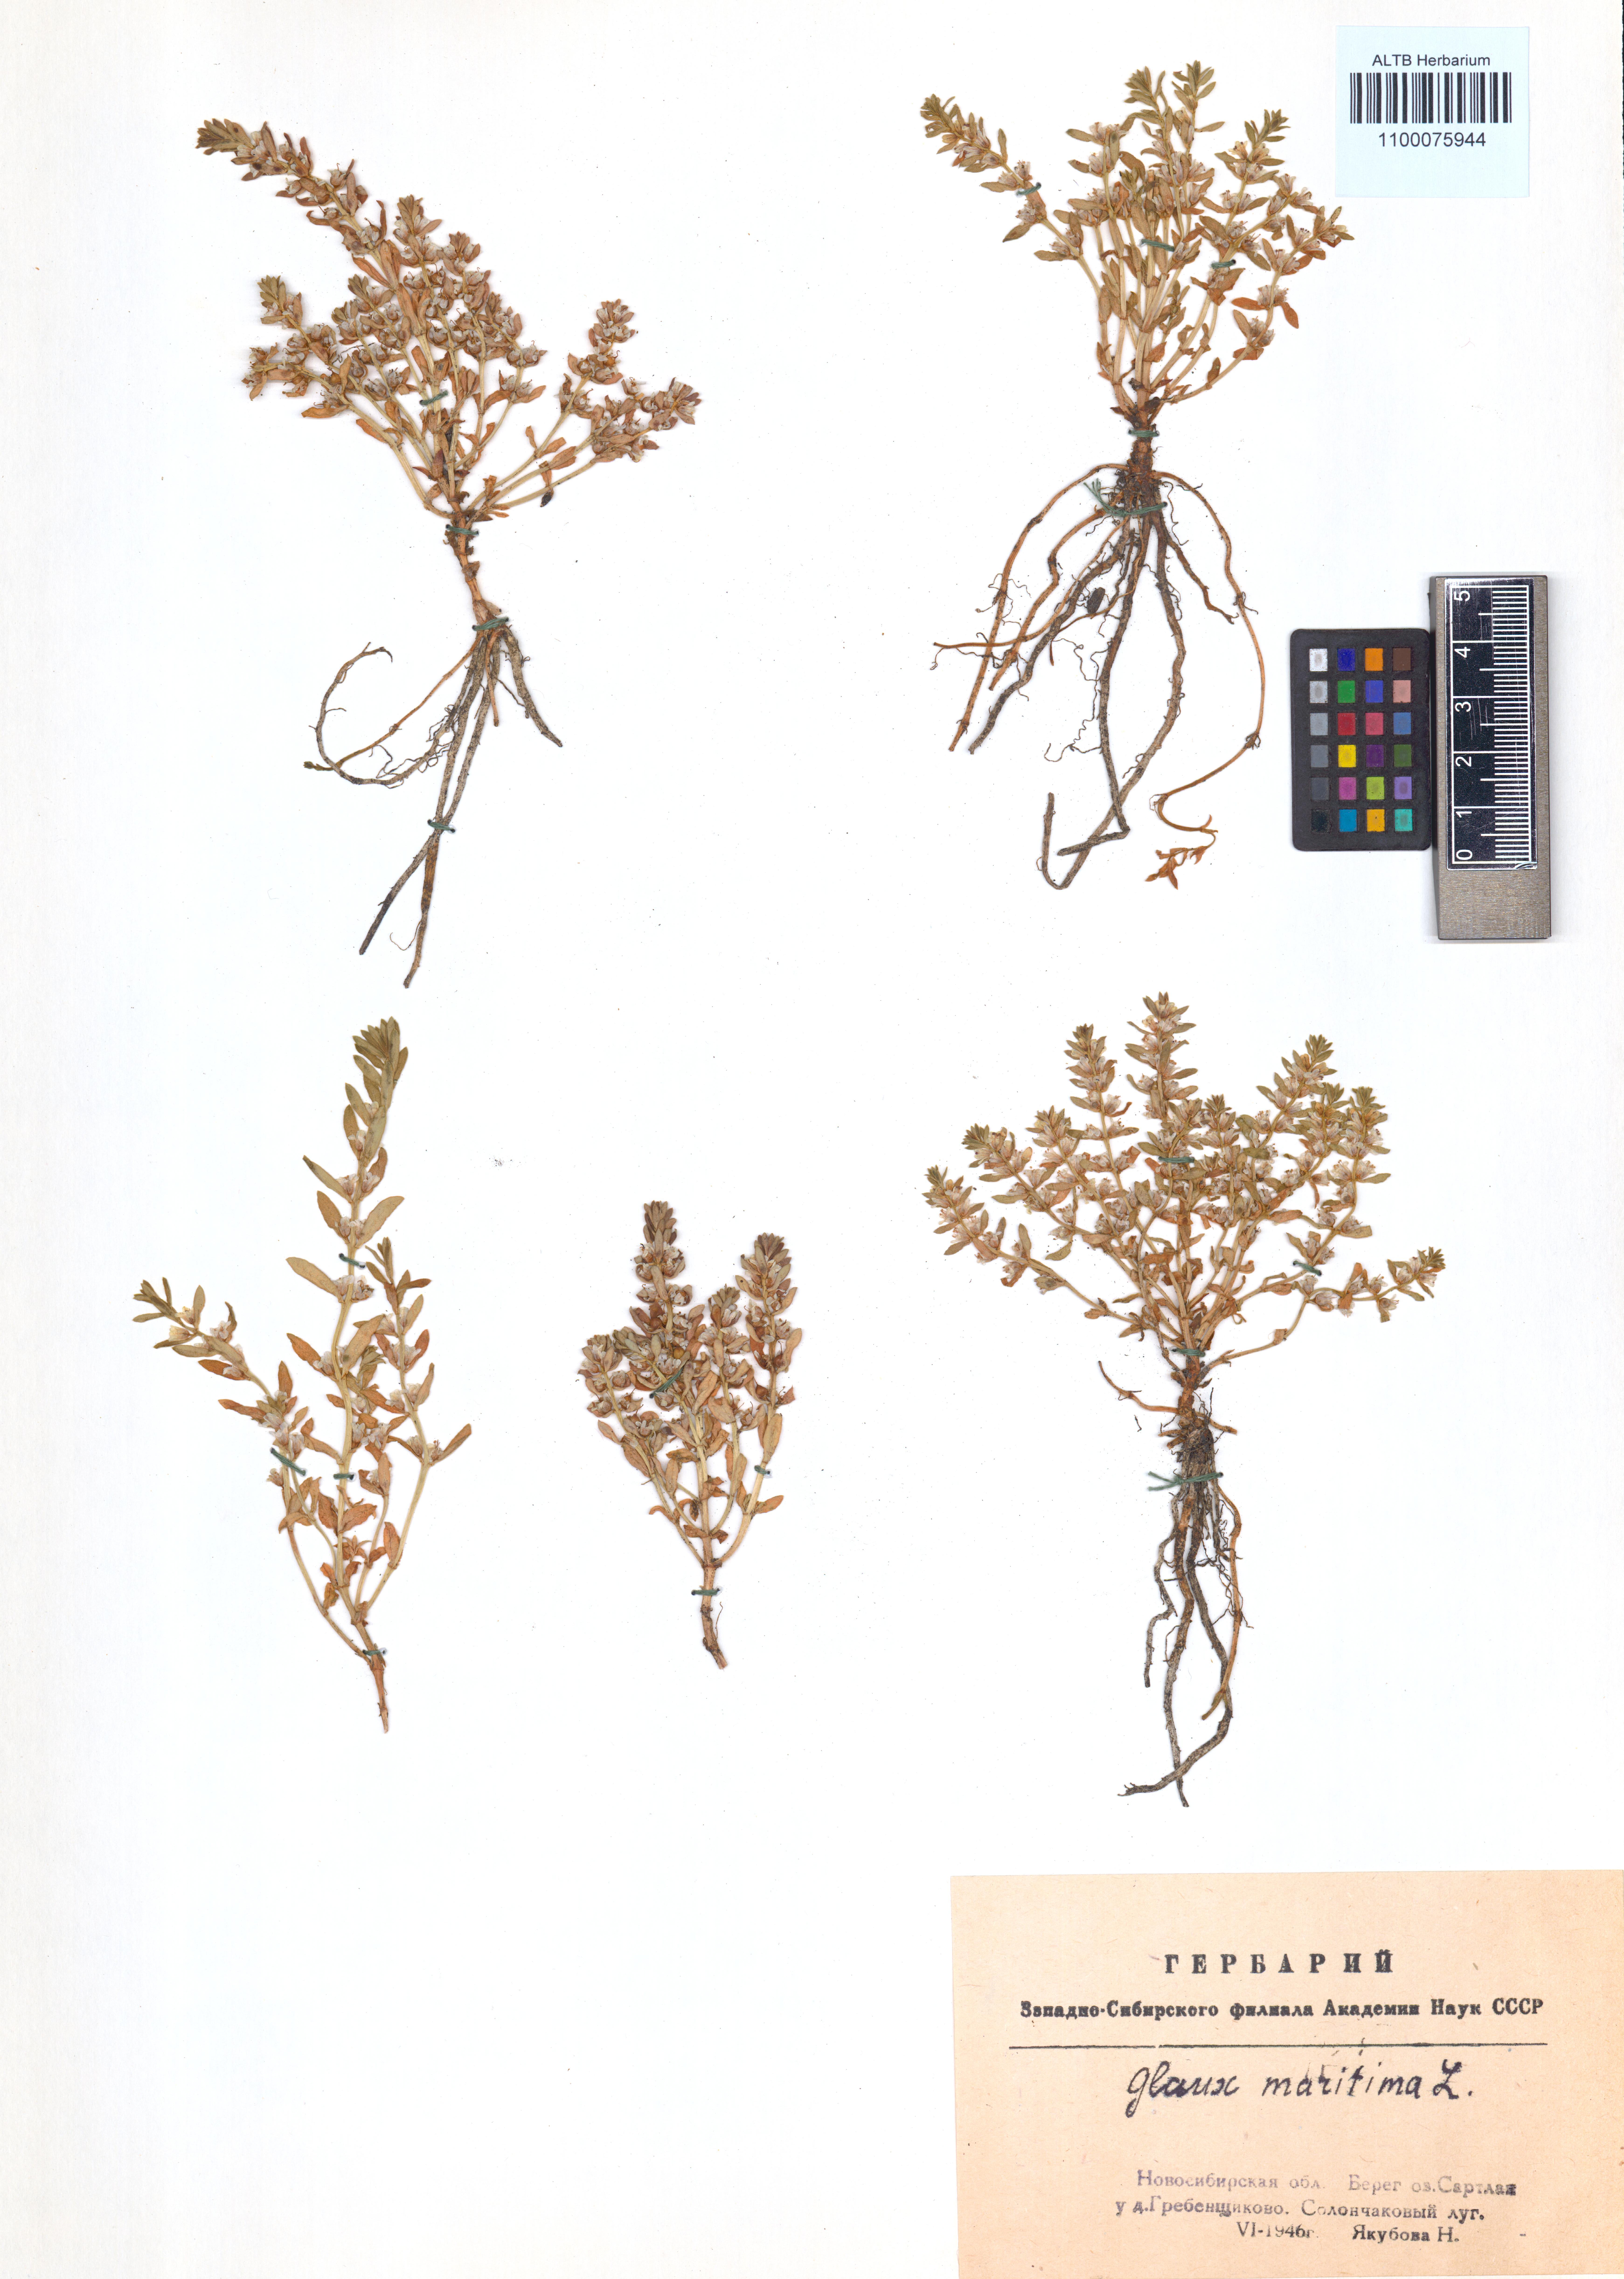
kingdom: Plantae
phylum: Tracheophyta
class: Magnoliopsida
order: Ericales
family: Primulaceae
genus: Lysimachia
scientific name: Lysimachia maritima
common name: Sea milkwort
